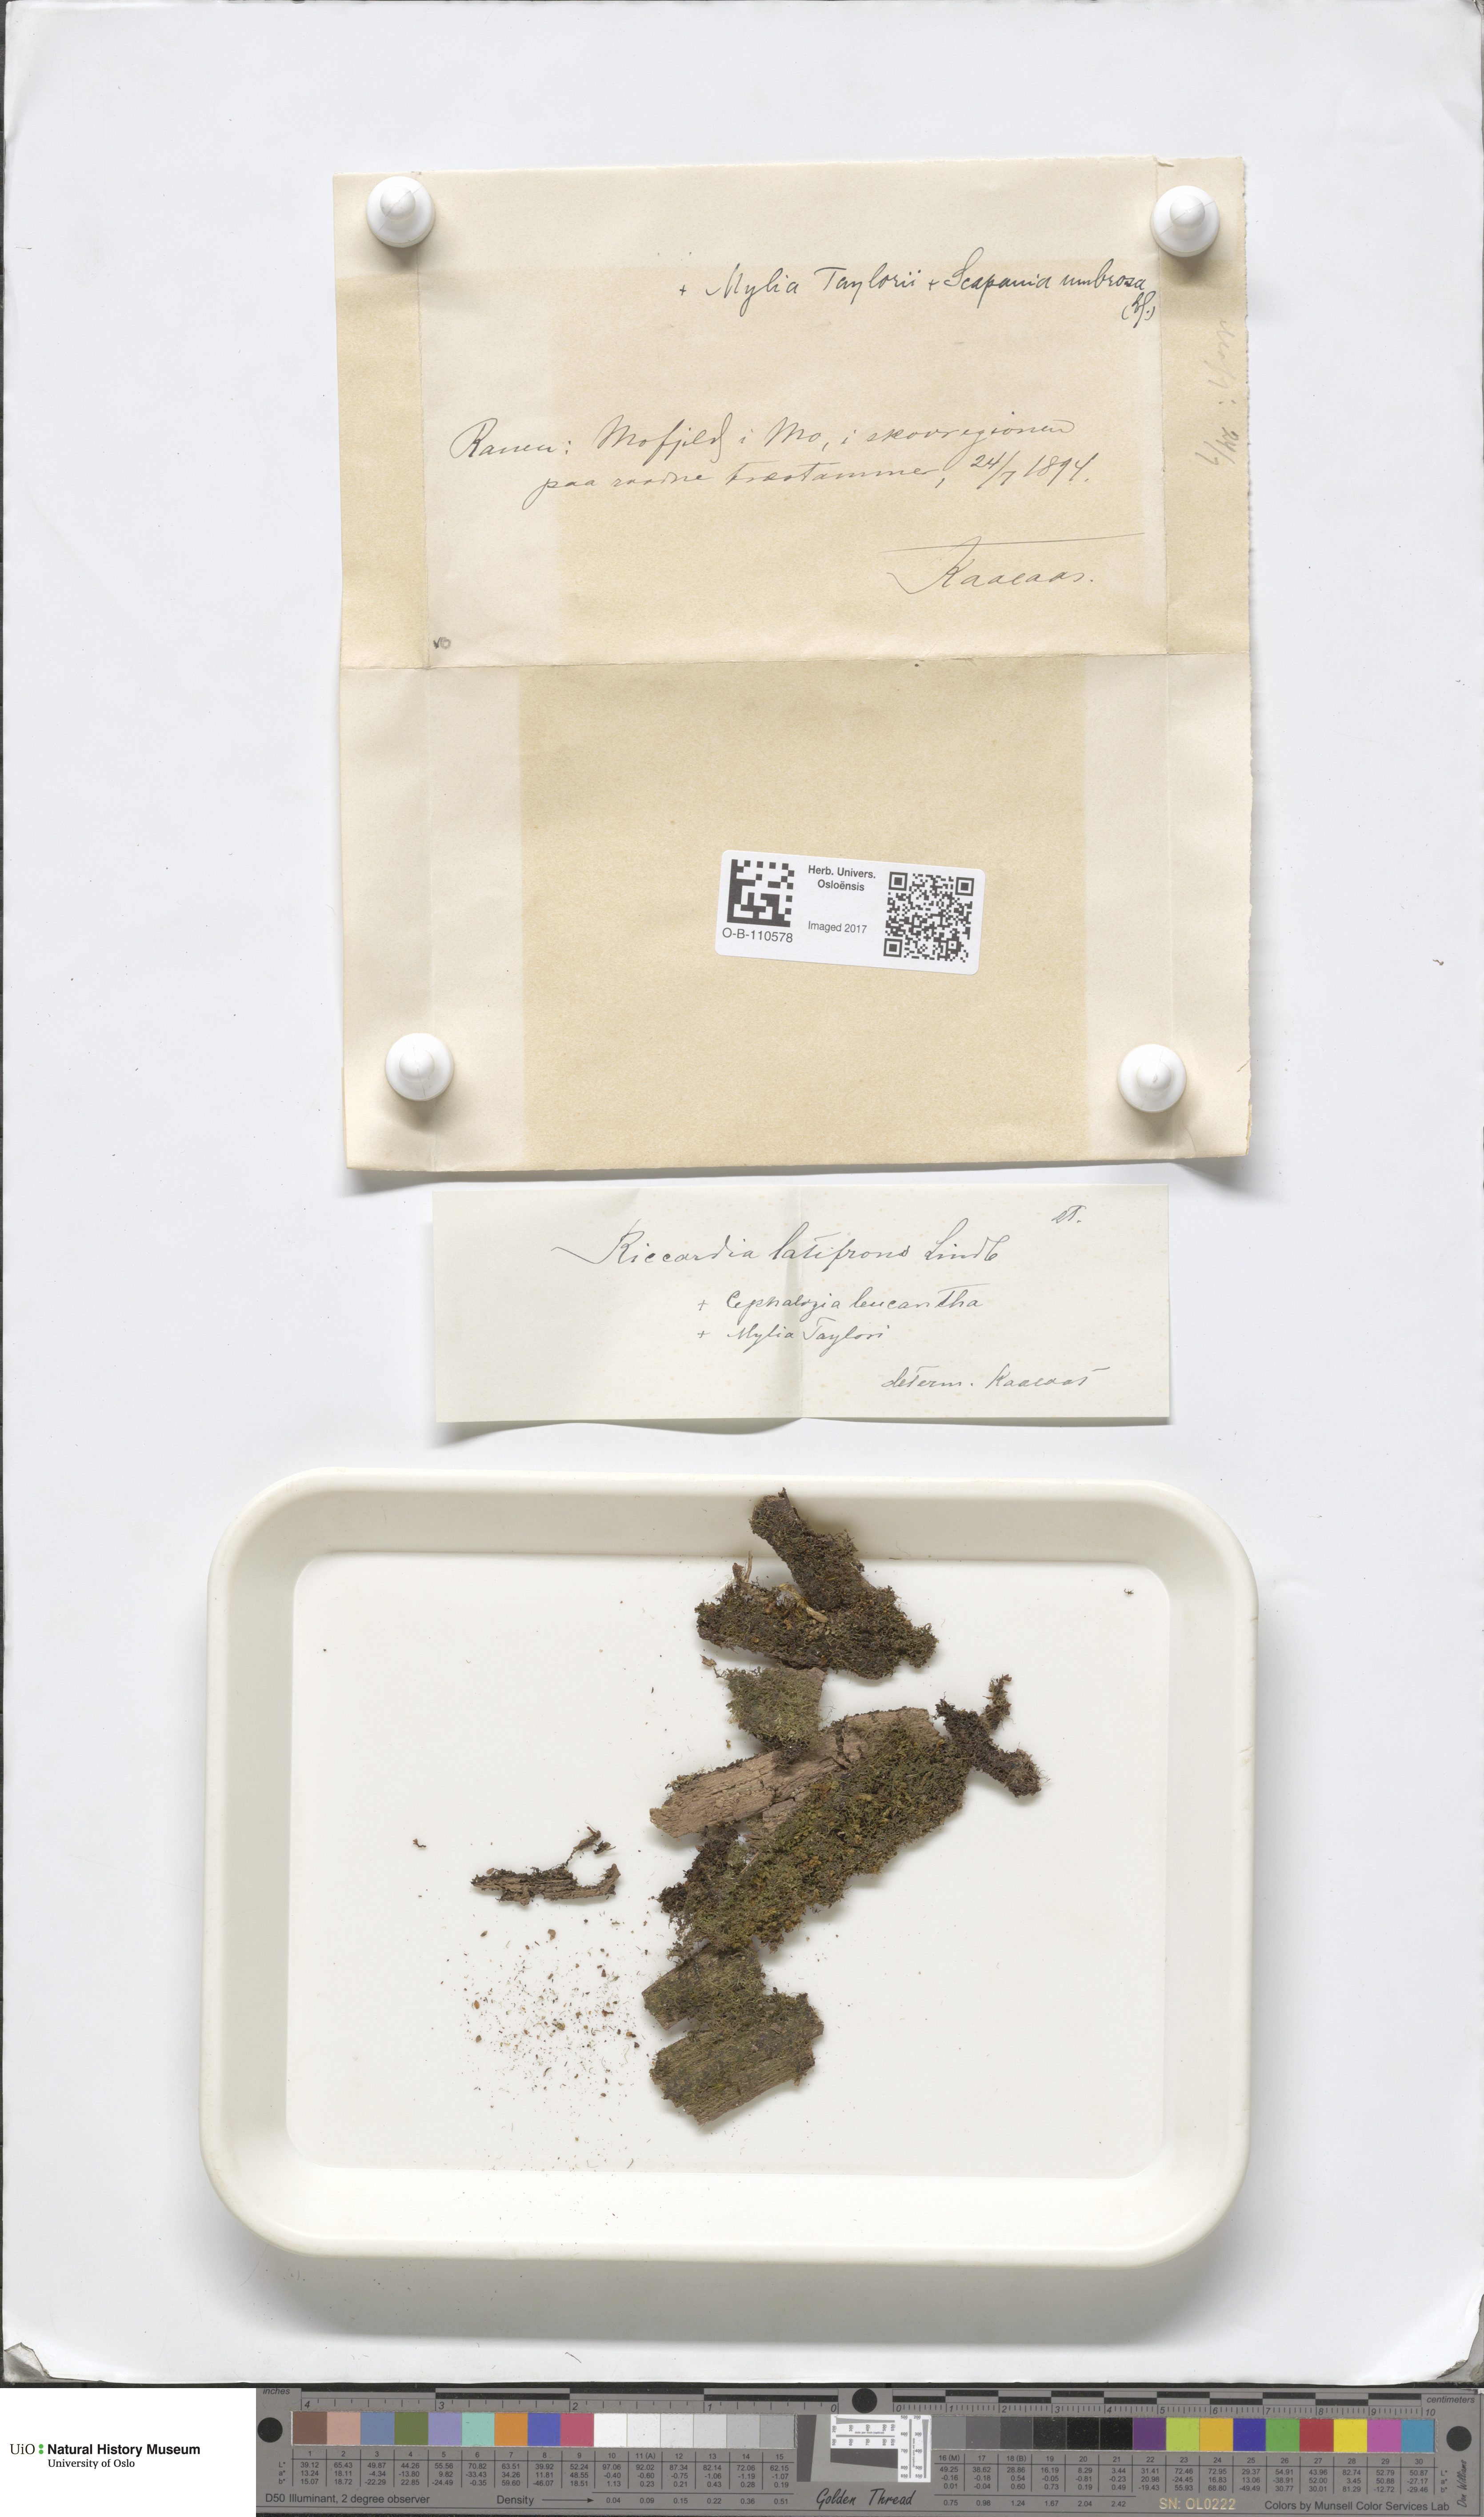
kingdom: Plantae
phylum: Marchantiophyta
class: Jungermanniopsida
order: Metzgeriales
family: Aneuraceae
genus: Riccardia
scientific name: Riccardia latifrons
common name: Bog germanderwort
